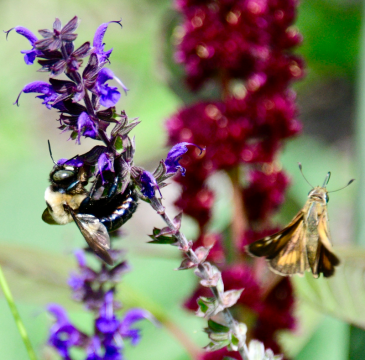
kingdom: Animalia
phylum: Arthropoda
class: Insecta
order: Lepidoptera
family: Hesperiidae
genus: Hesperia
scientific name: Hesperia leonardus
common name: Leonard's Skipper
